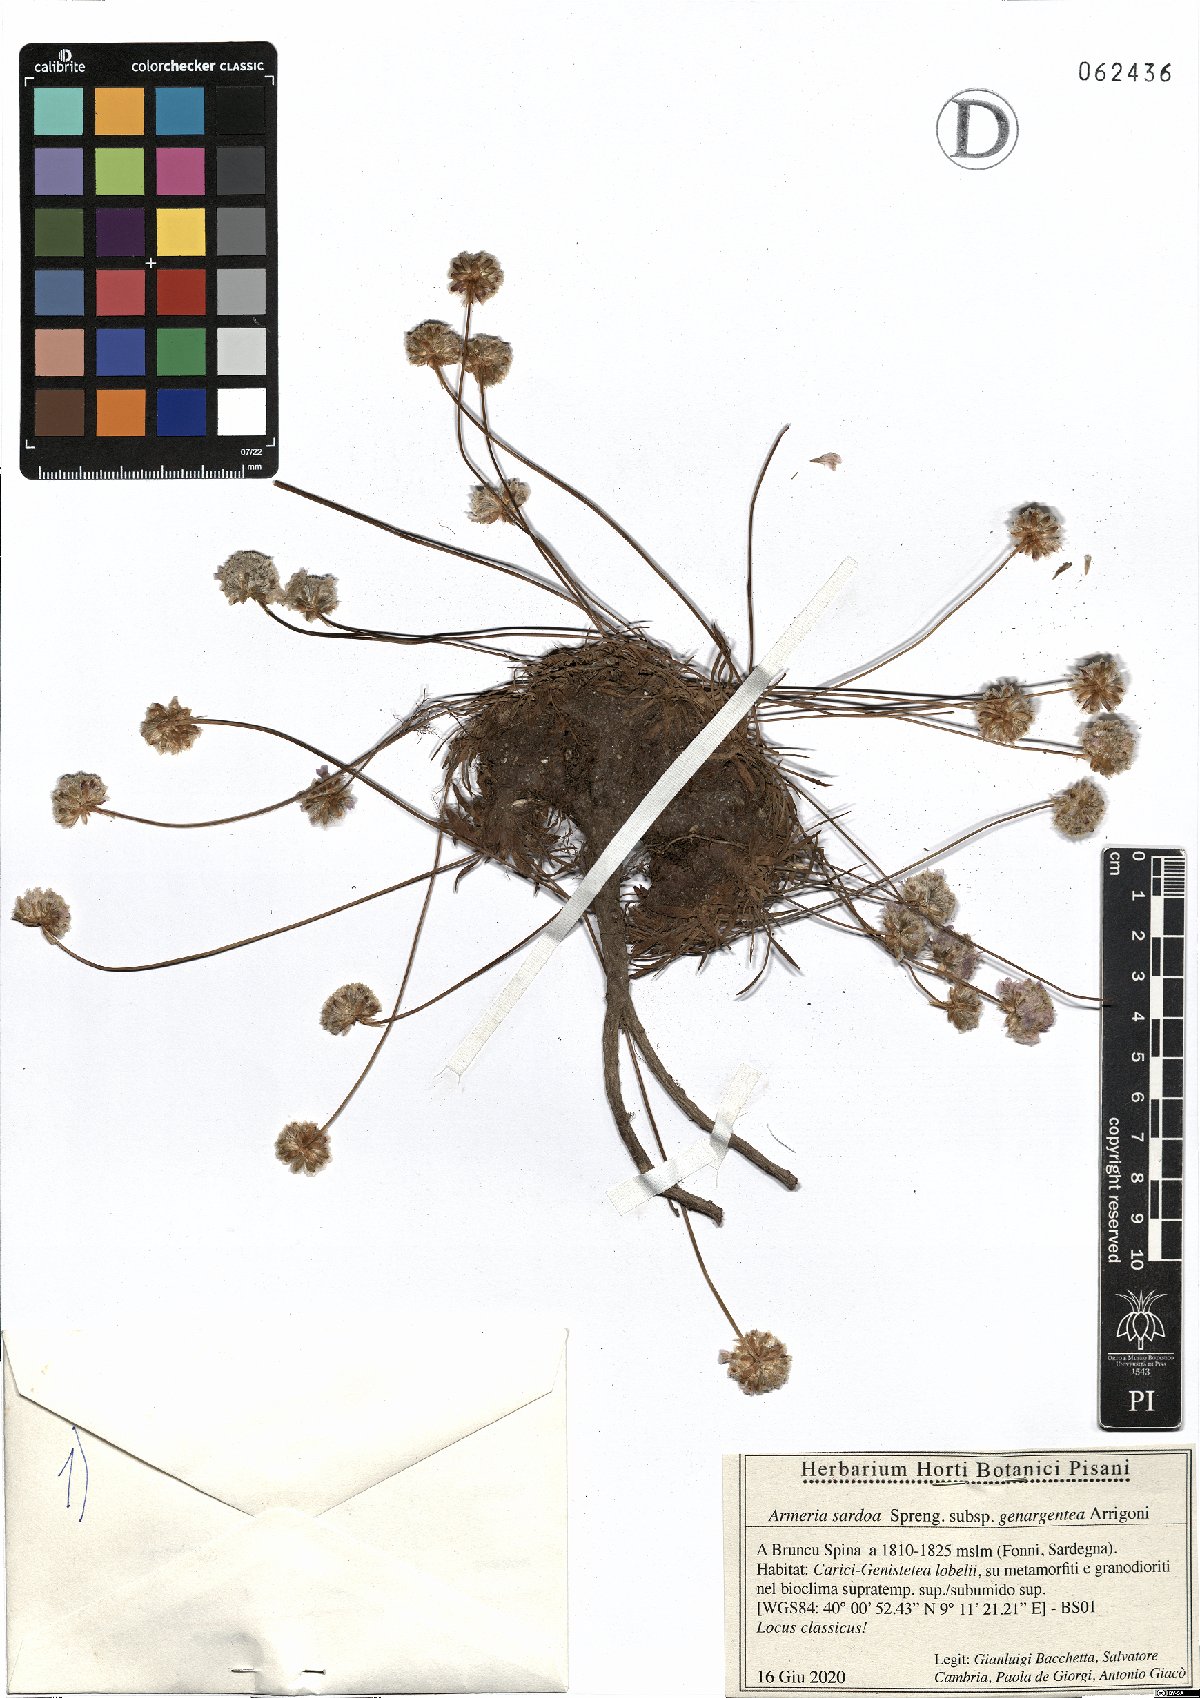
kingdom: Plantae
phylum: Tracheophyta
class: Magnoliopsida
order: Caryophyllales
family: Plumbaginaceae
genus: Armeria
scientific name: Armeria sardoa
